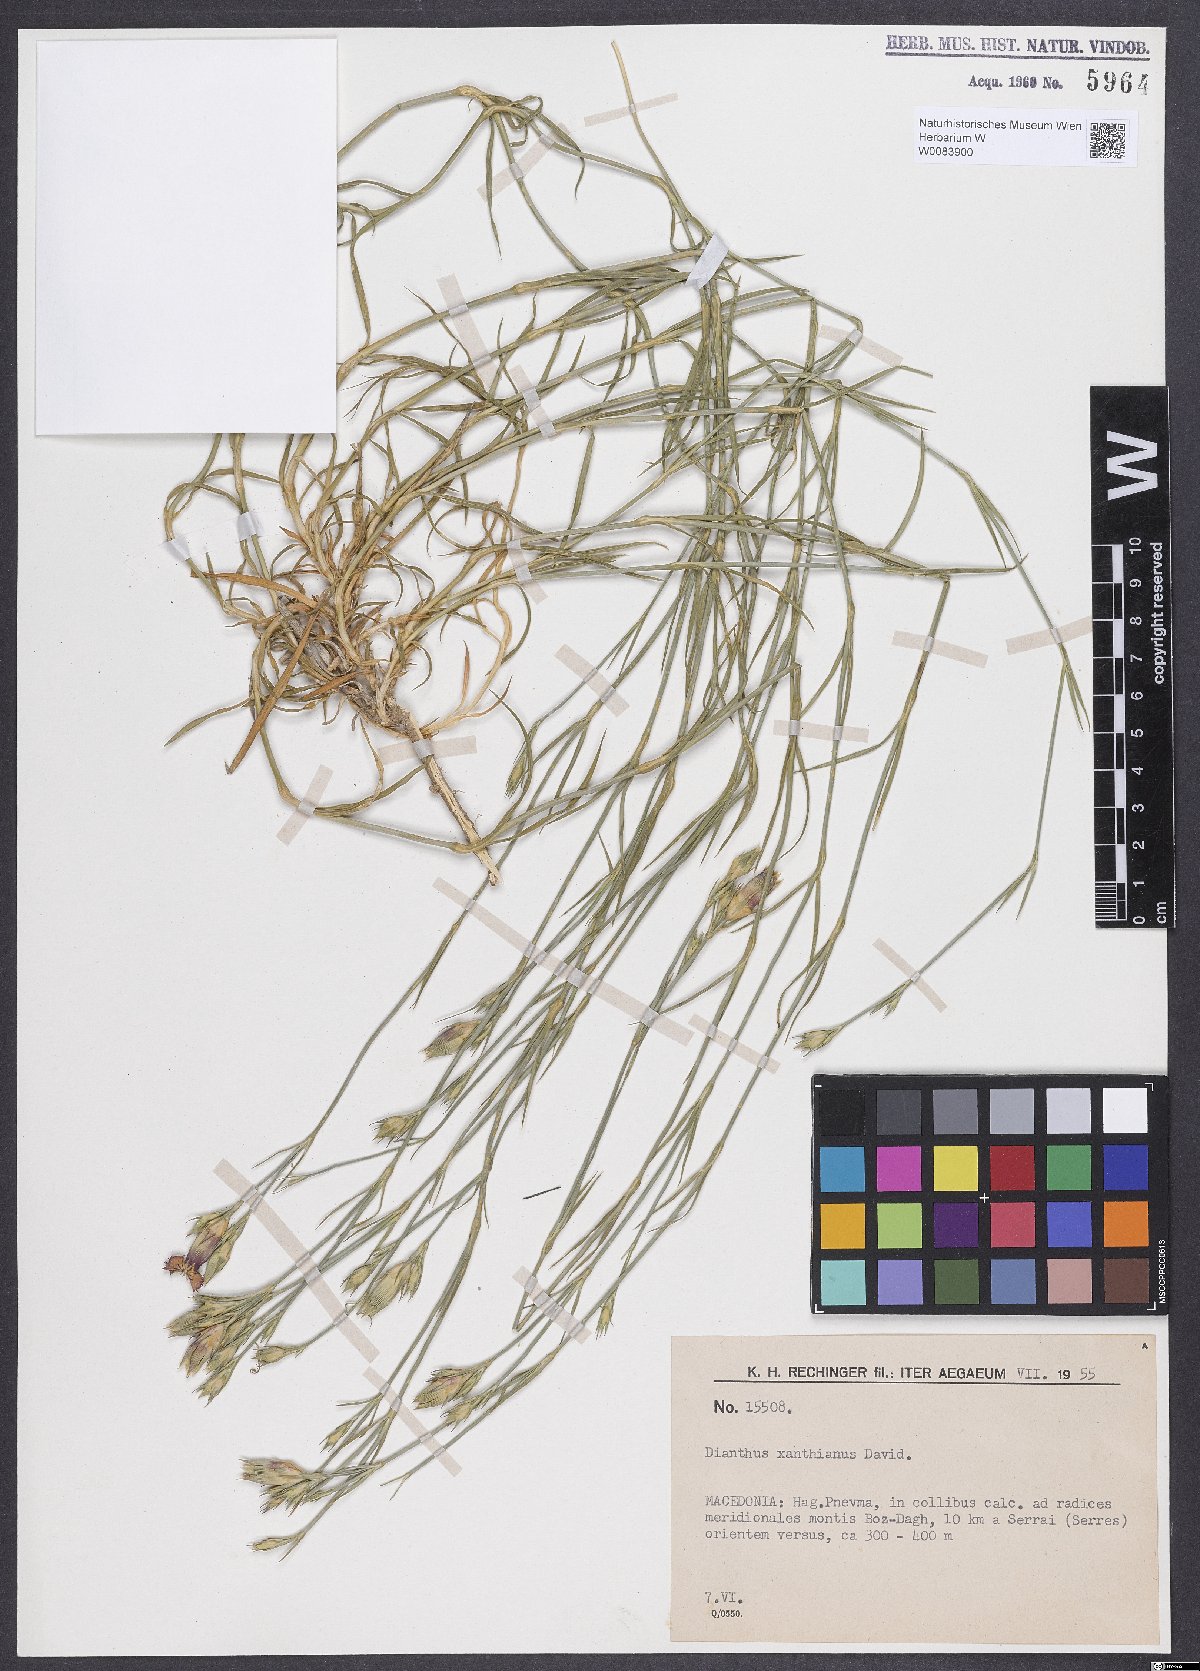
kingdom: Plantae
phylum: Tracheophyta
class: Magnoliopsida
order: Caryophyllales
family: Caryophyllaceae
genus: Dianthus
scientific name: Dianthus gracilis
